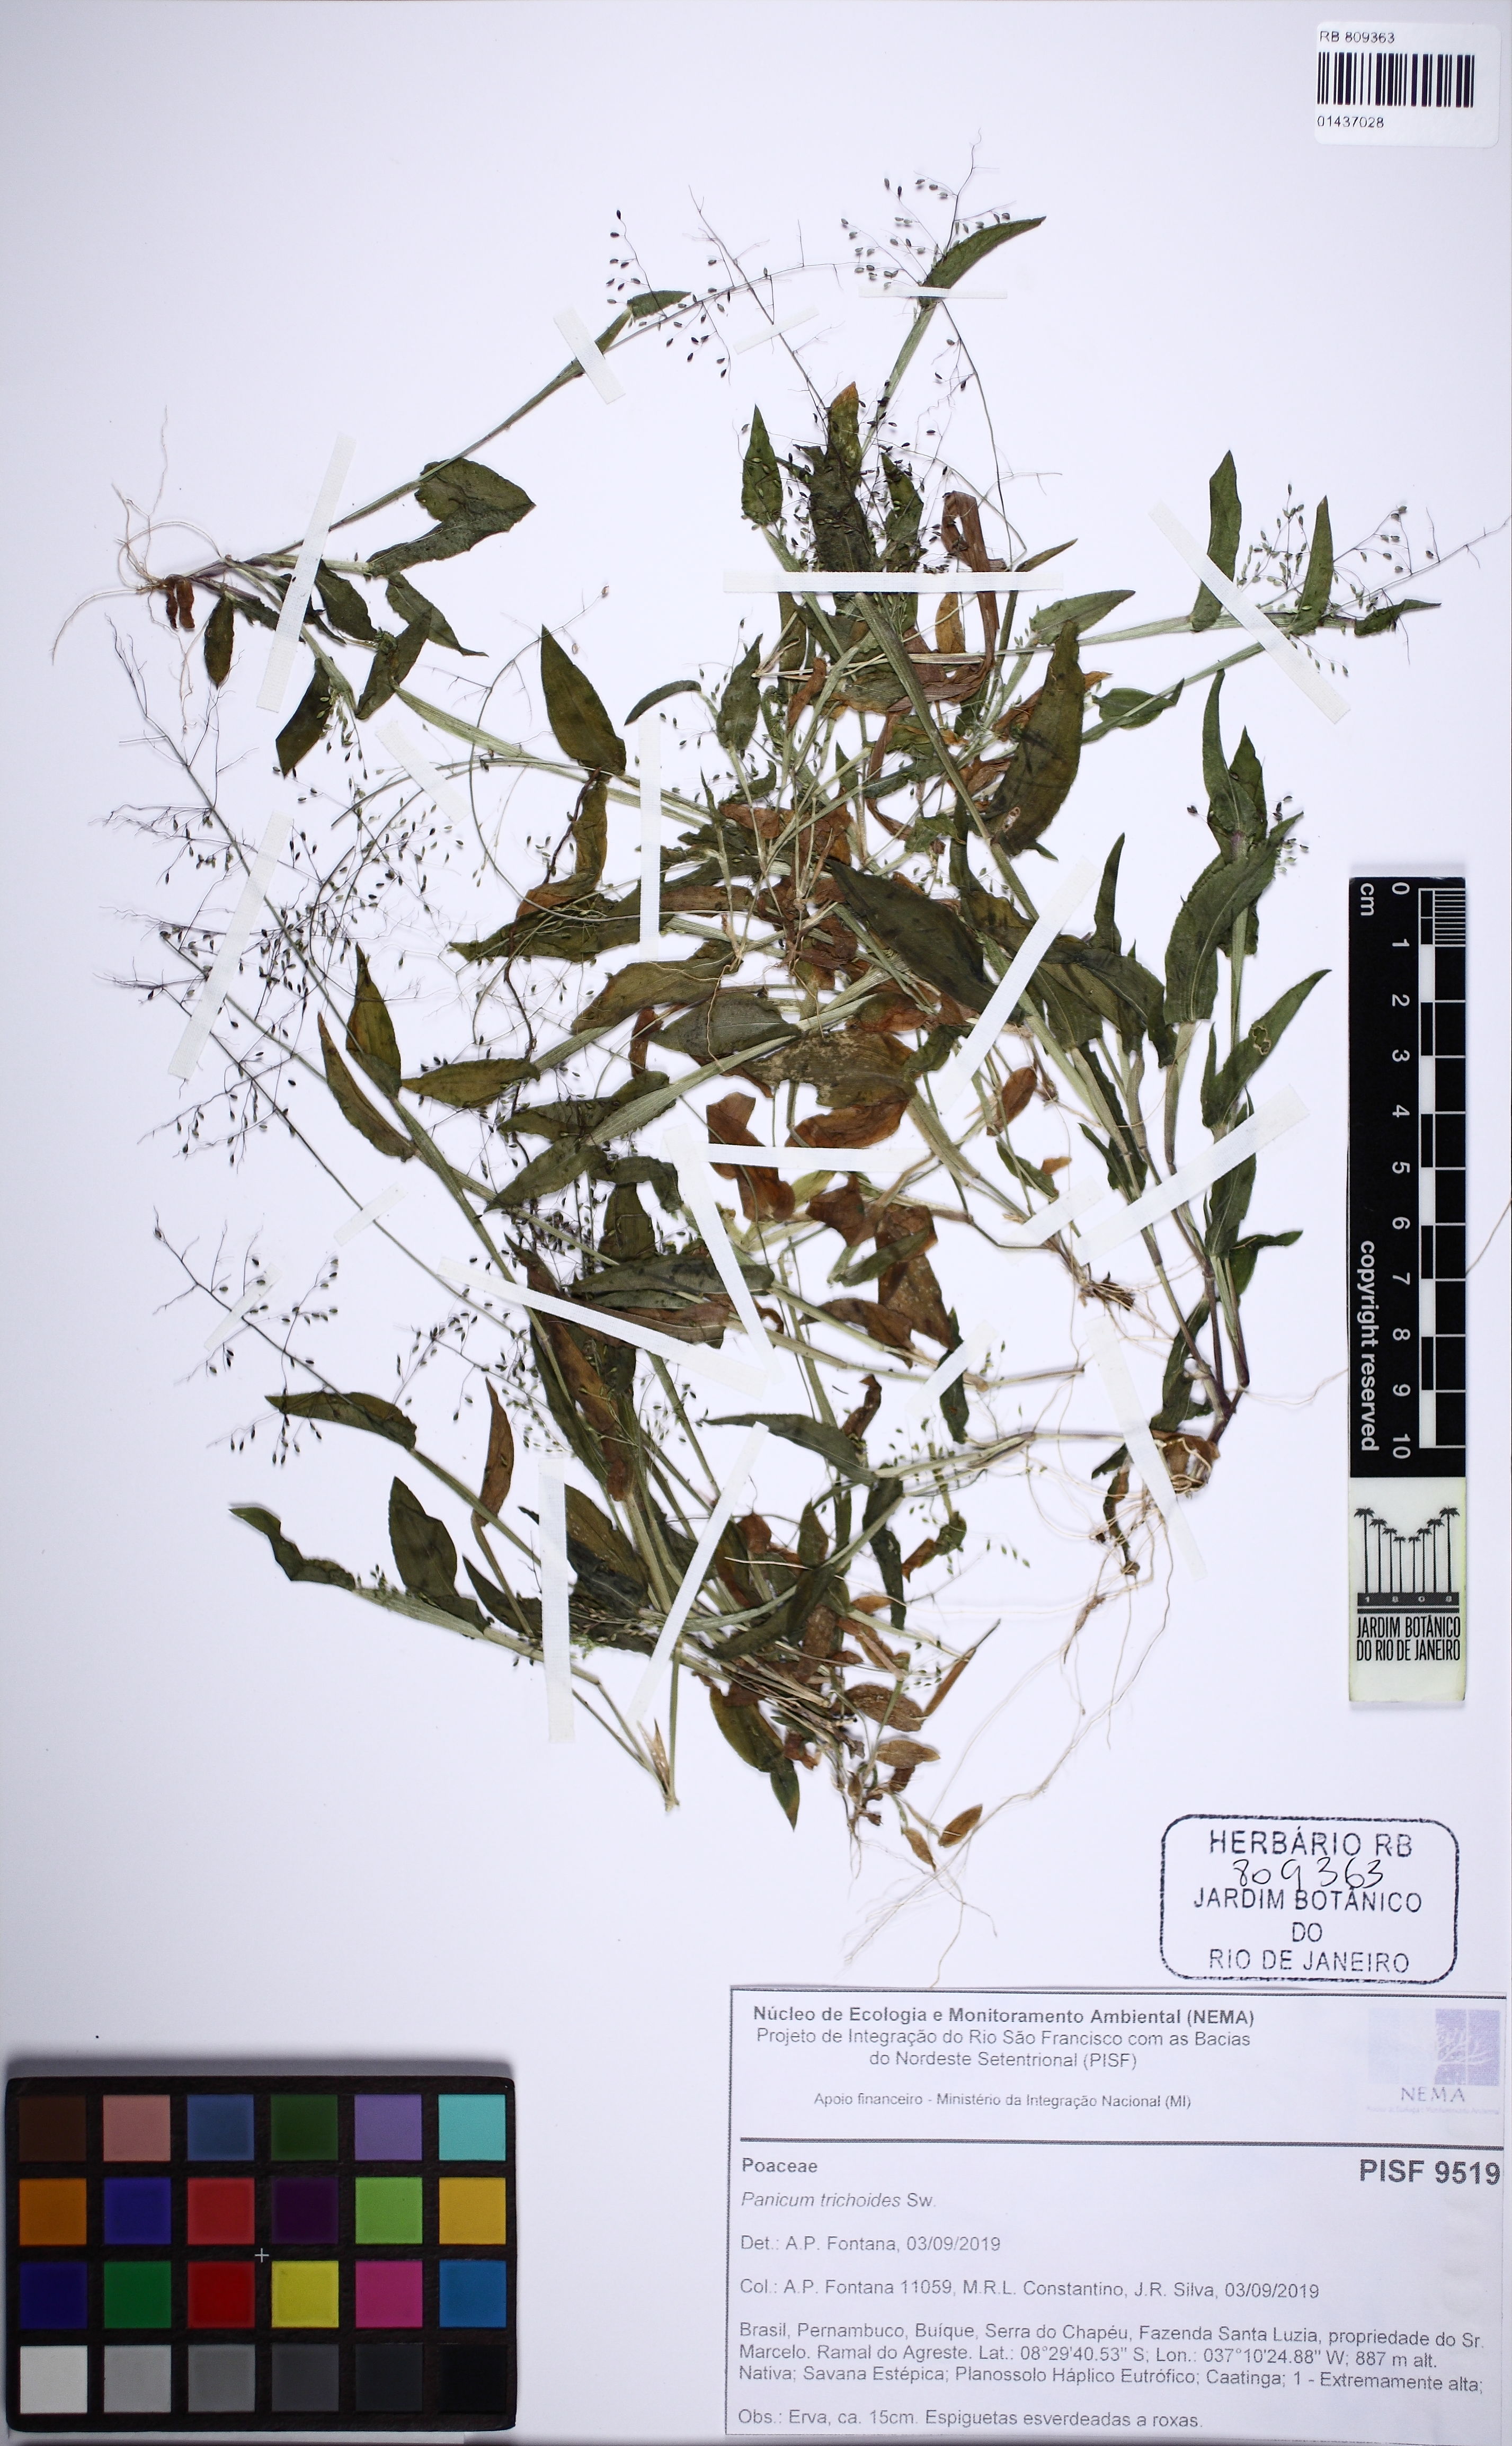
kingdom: Plantae
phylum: Tracheophyta
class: Liliopsida
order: Poales
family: Poaceae
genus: Panicum
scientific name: Panicum trichoides
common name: Tickle grass
